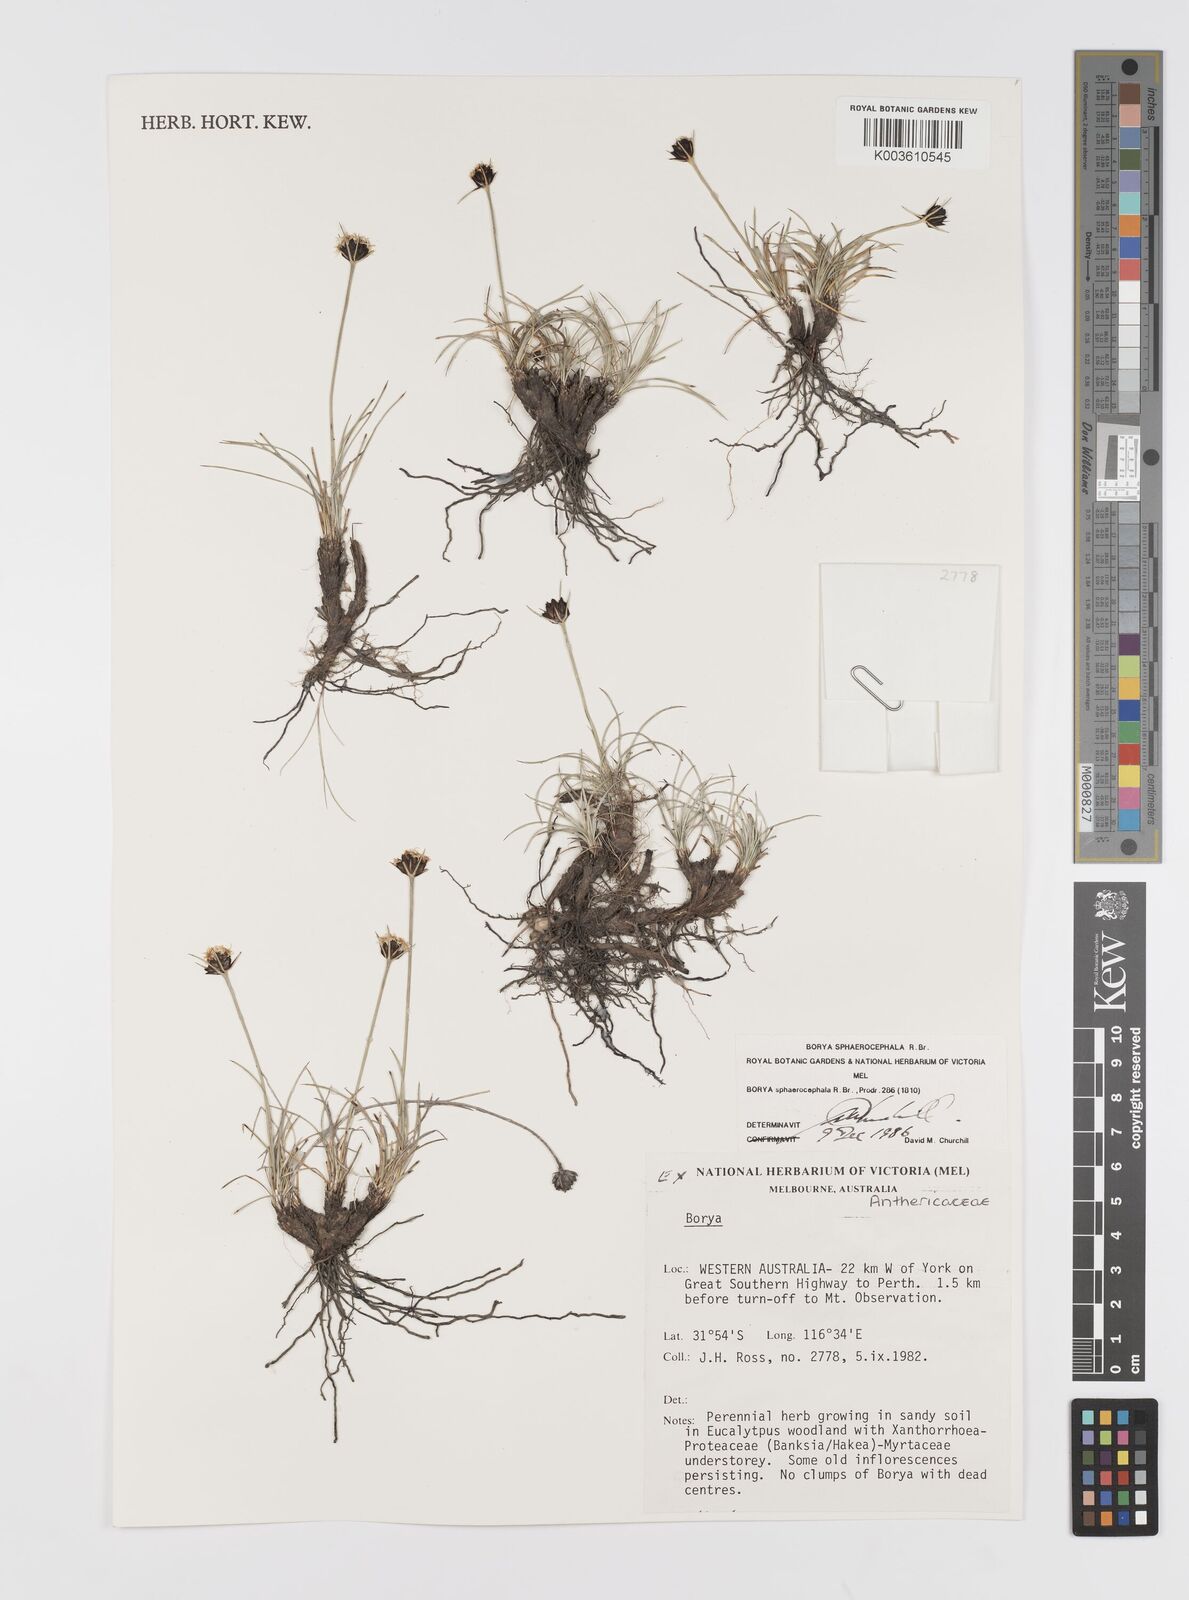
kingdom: Plantae
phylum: Tracheophyta
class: Liliopsida
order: Asparagales
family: Boryaceae
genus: Borya
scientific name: Borya sphaerocephala
